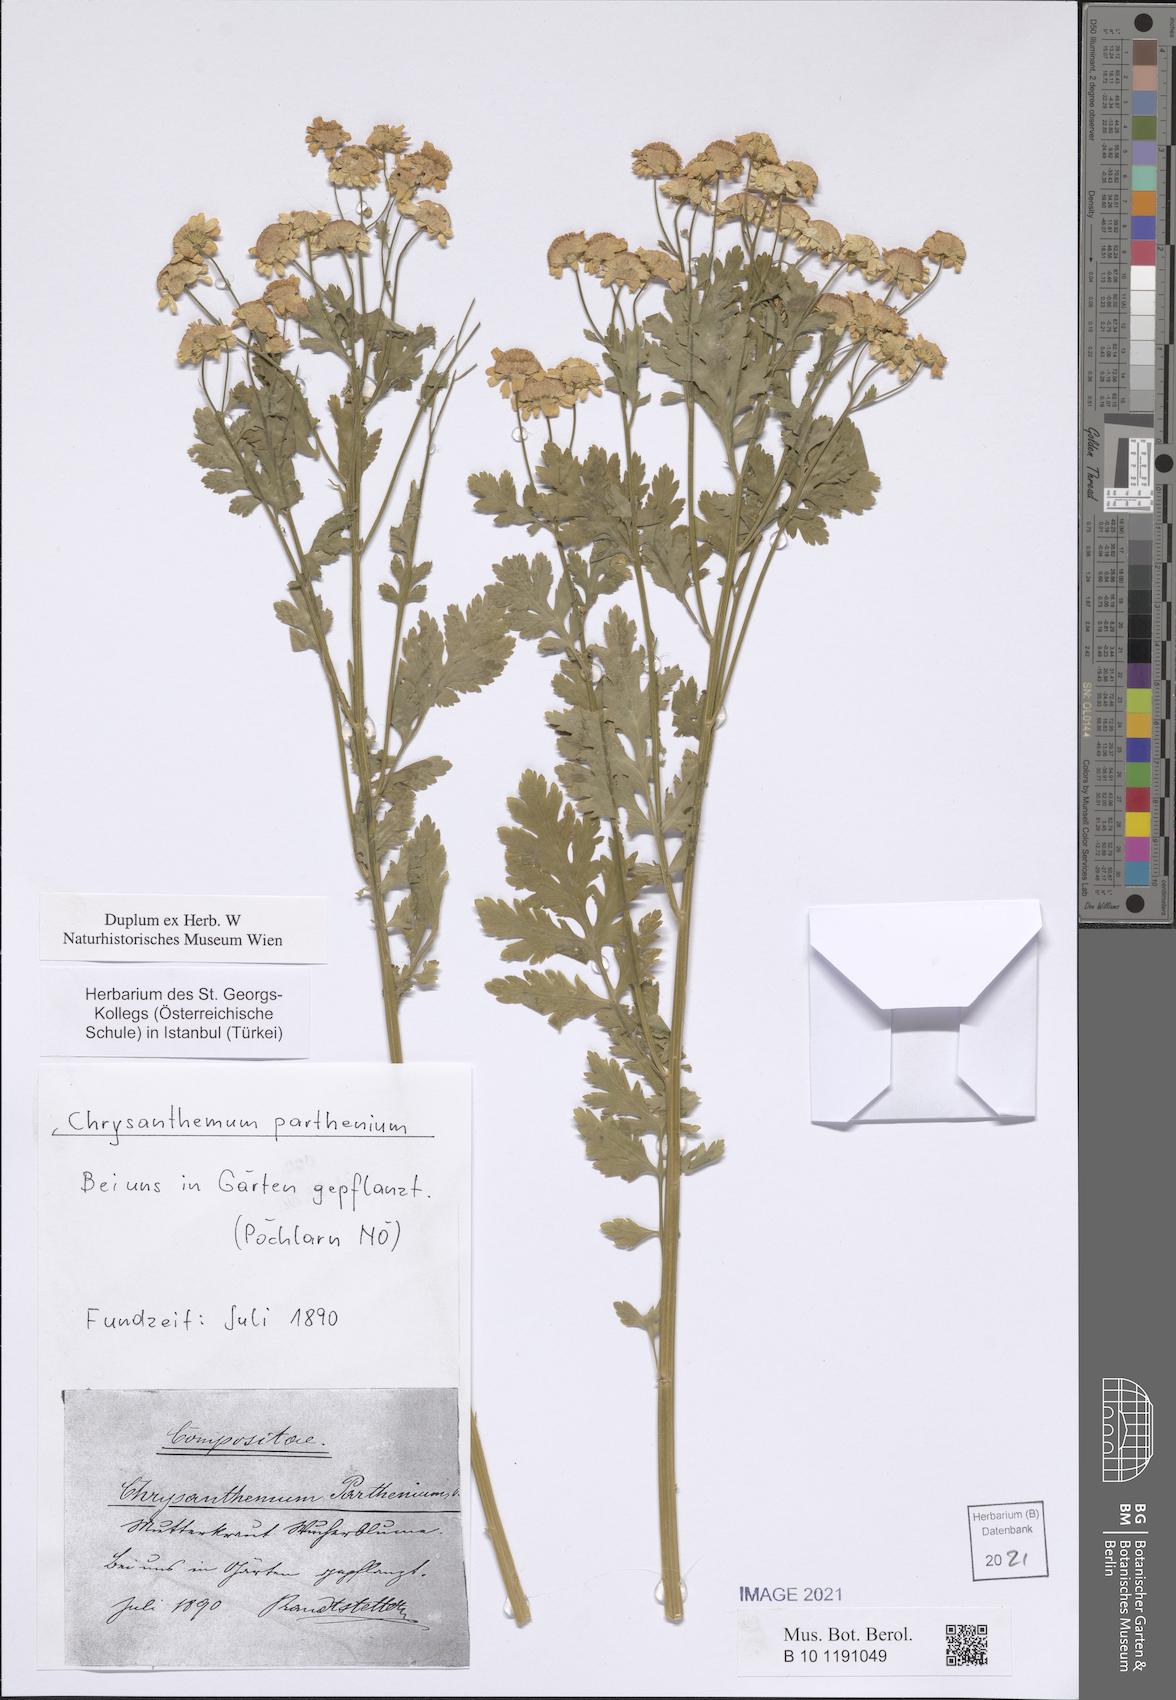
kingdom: Plantae
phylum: Tracheophyta
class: Magnoliopsida
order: Asterales
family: Asteraceae
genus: Tanacetum
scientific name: Tanacetum parthenium
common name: Feverfew
